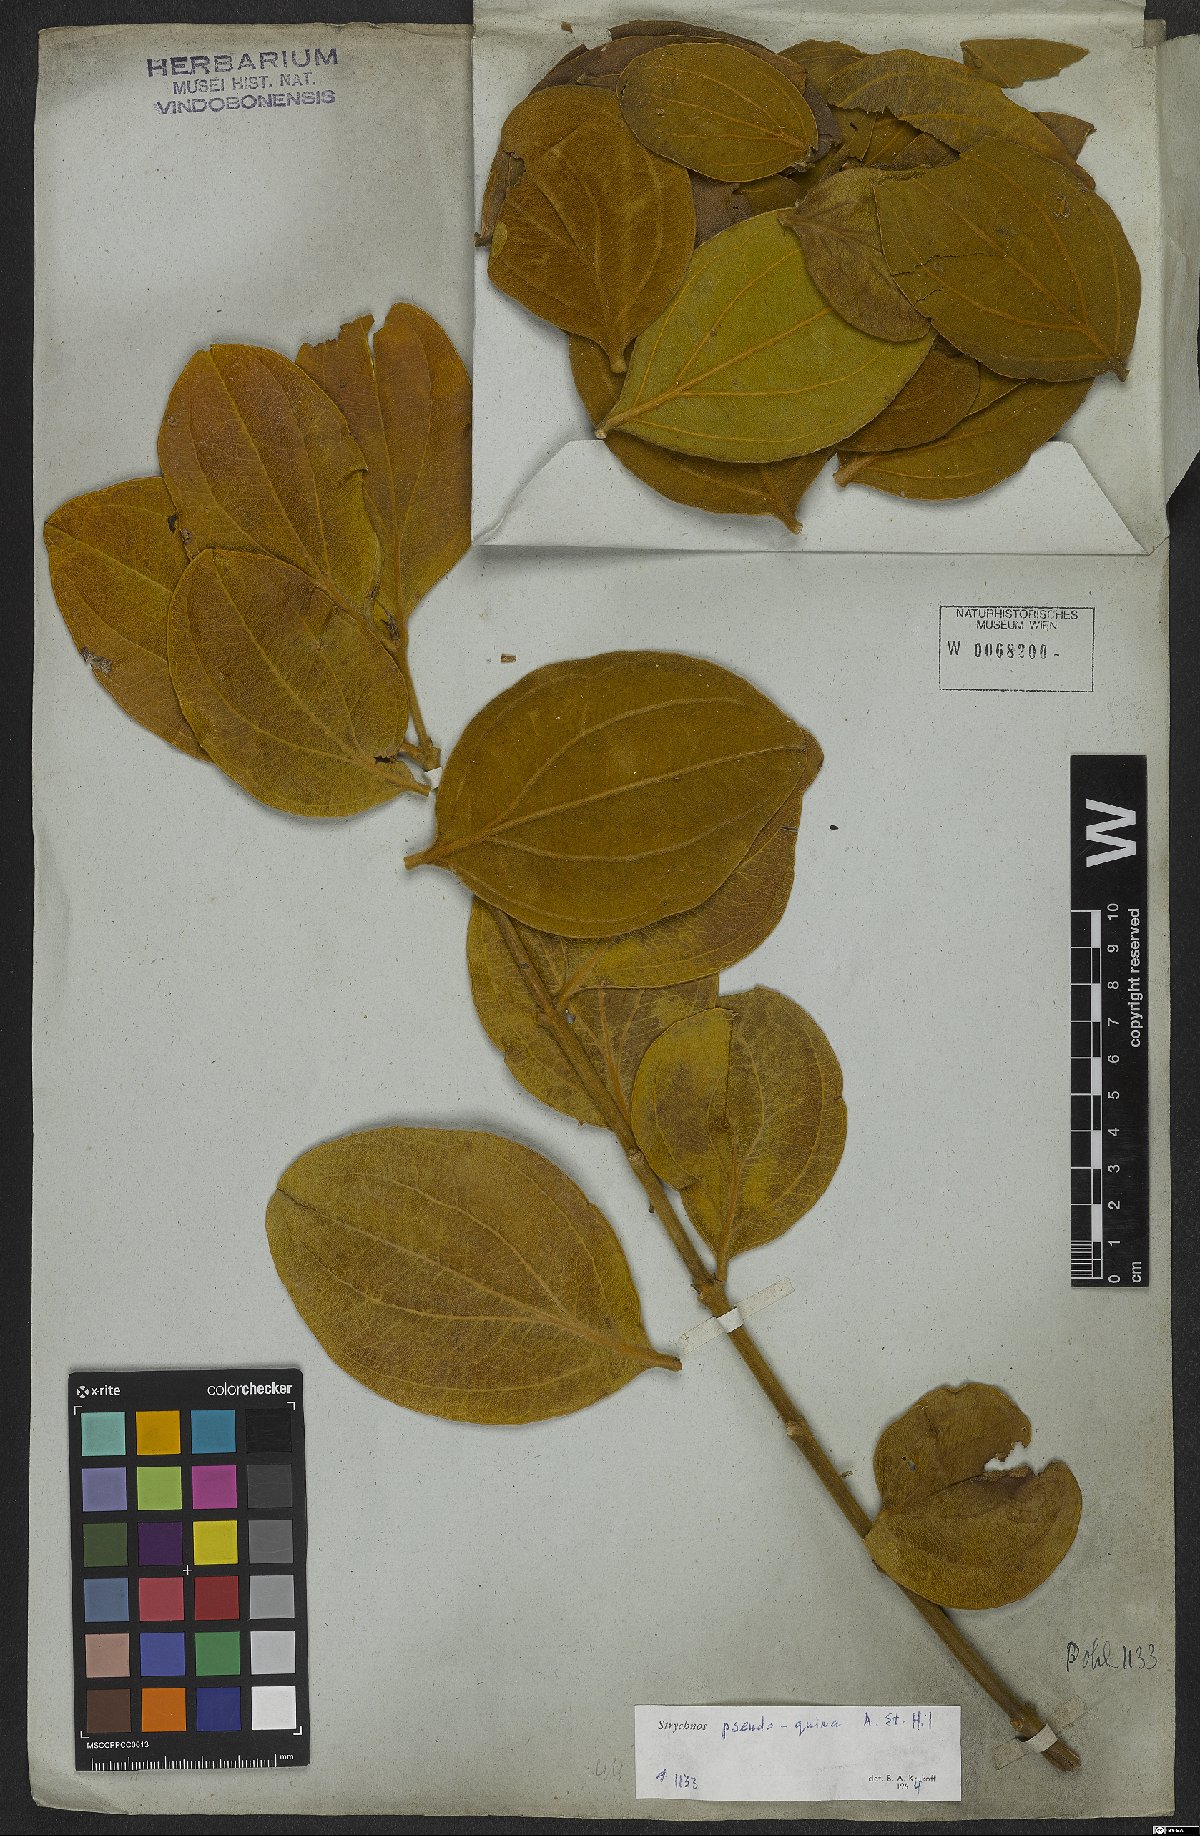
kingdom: Plantae
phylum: Tracheophyta
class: Magnoliopsida
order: Gentianales
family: Loganiaceae
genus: Strychnos
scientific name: Strychnos pseudoquina
